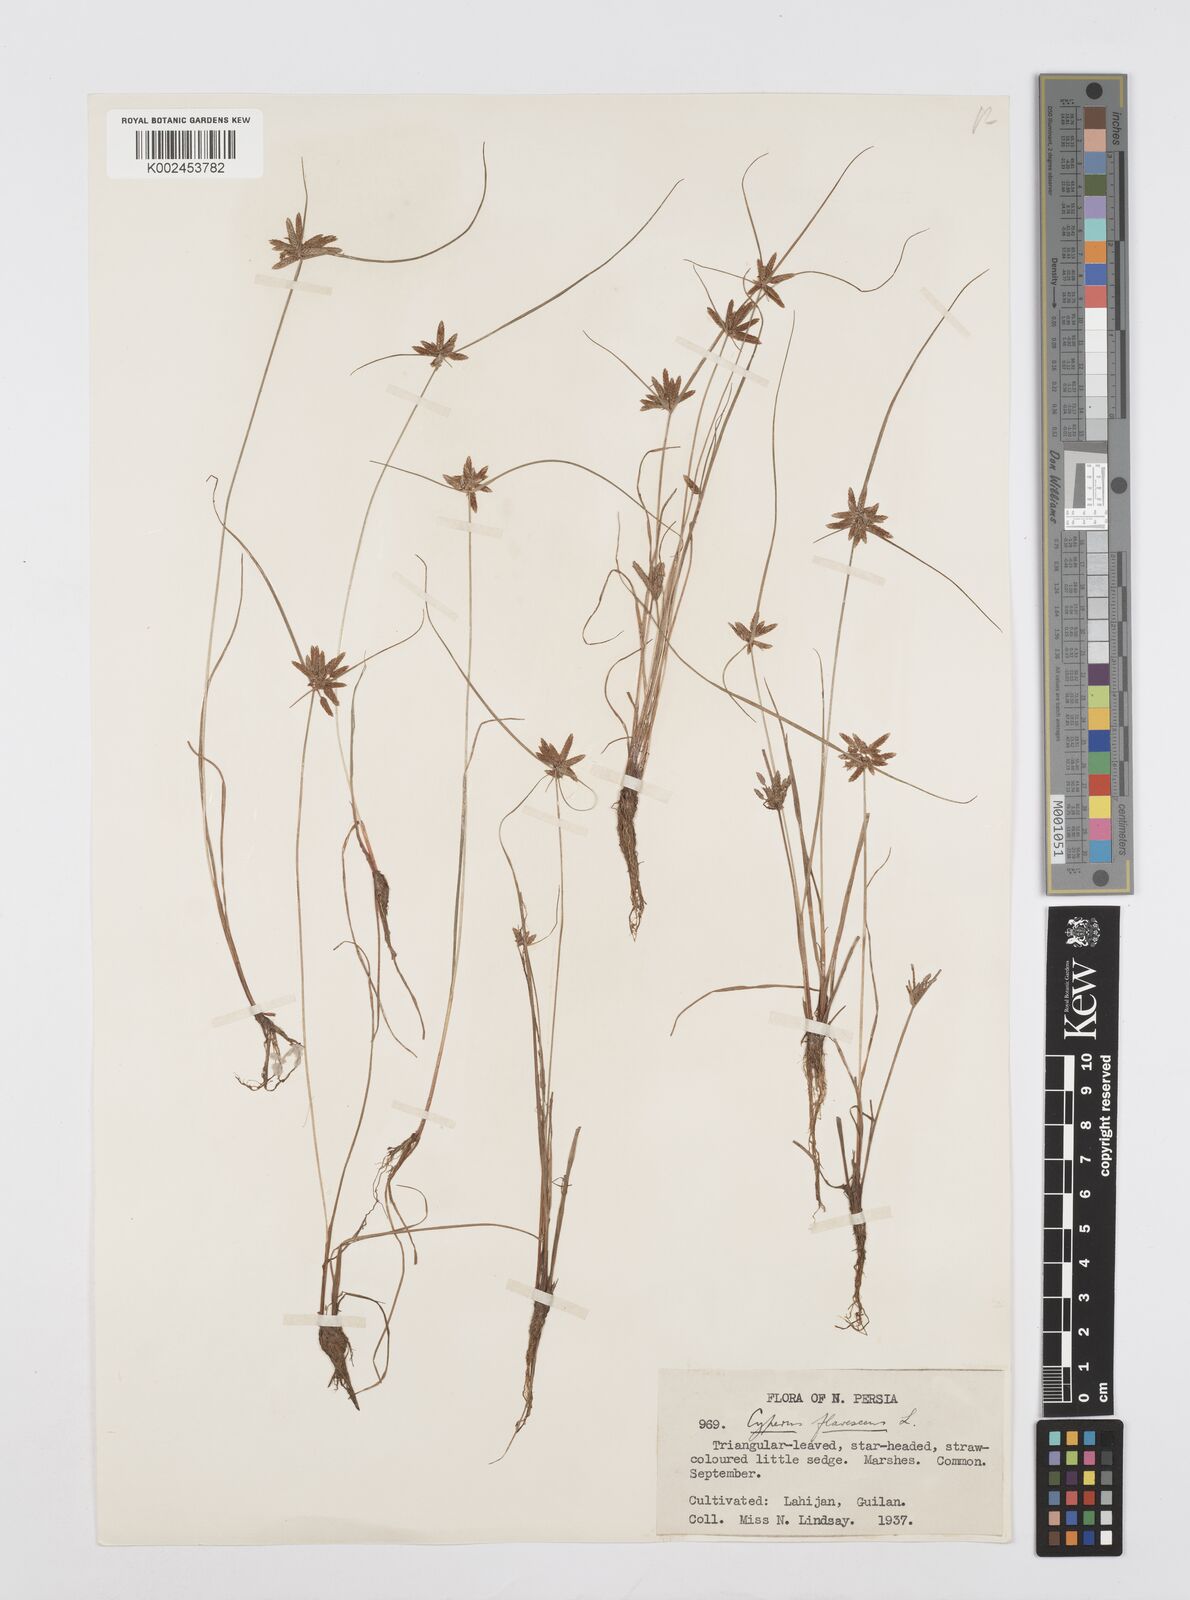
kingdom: Plantae
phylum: Tracheophyta
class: Liliopsida
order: Poales
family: Cyperaceae
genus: Cyperus
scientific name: Cyperus flavescens
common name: Yellow galingale
